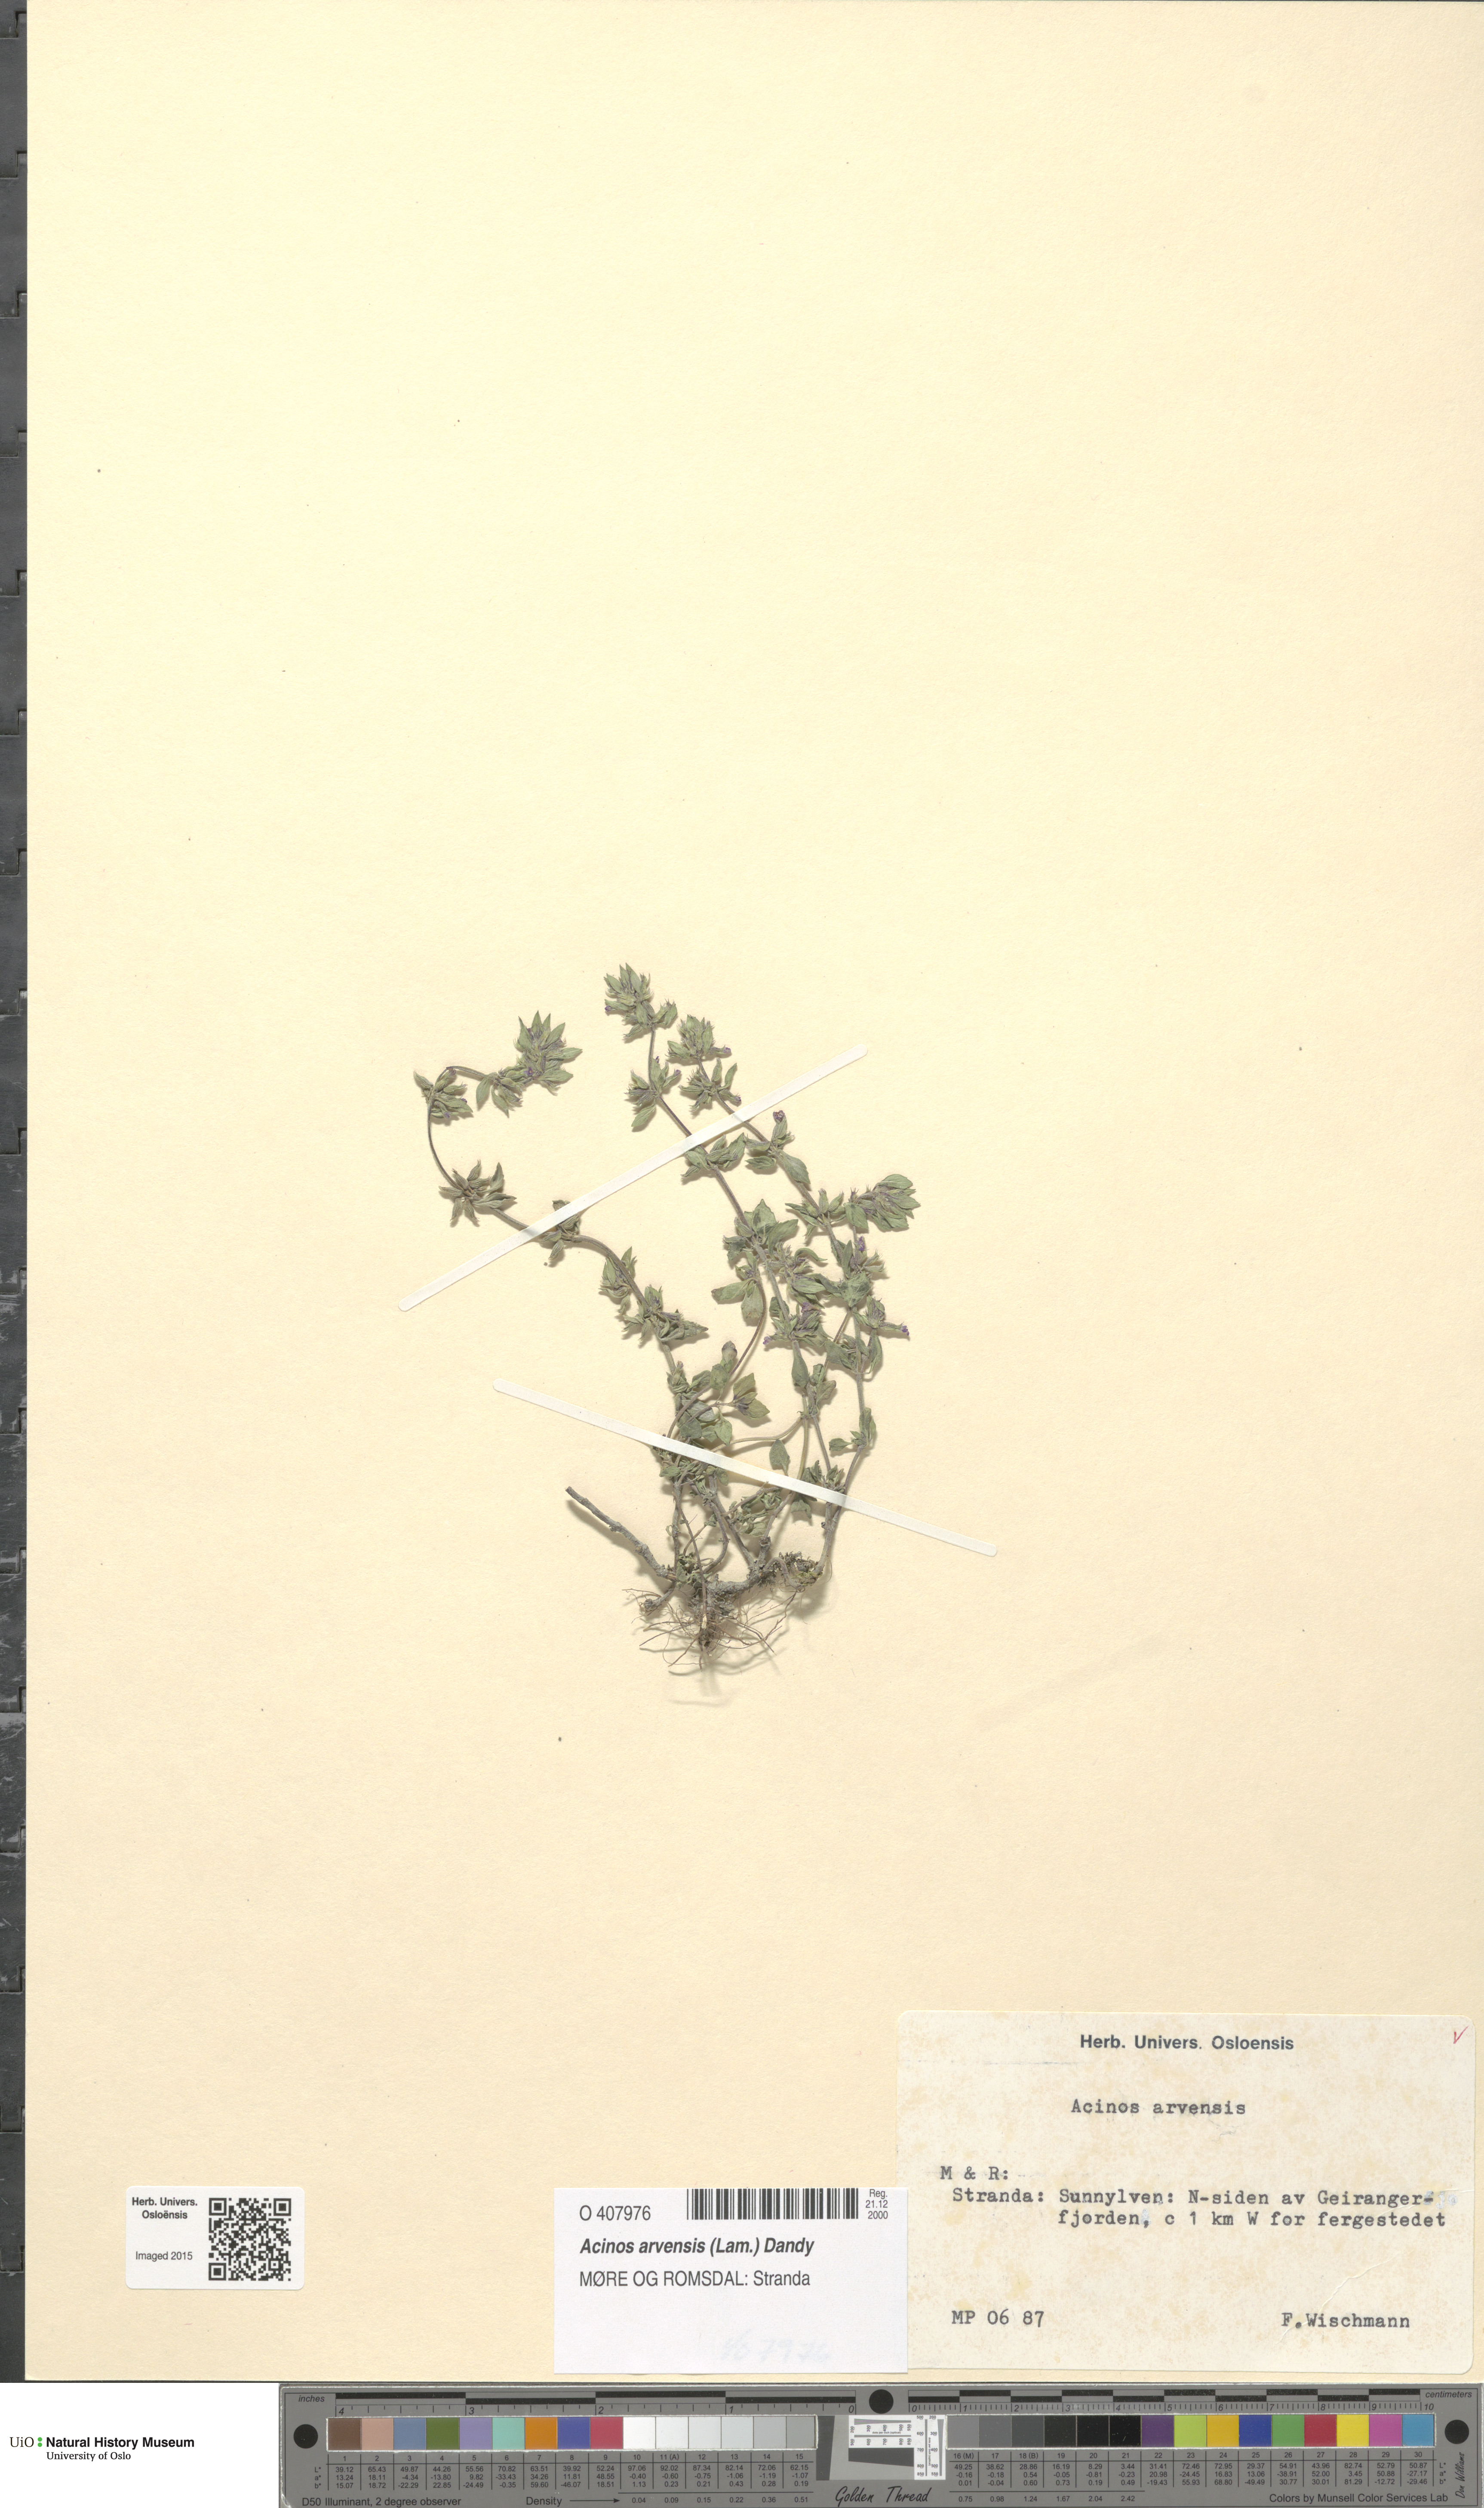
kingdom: Plantae
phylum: Tracheophyta
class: Magnoliopsida
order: Lamiales
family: Lamiaceae
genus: Clinopodium
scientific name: Clinopodium acinos
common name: Basil thyme
